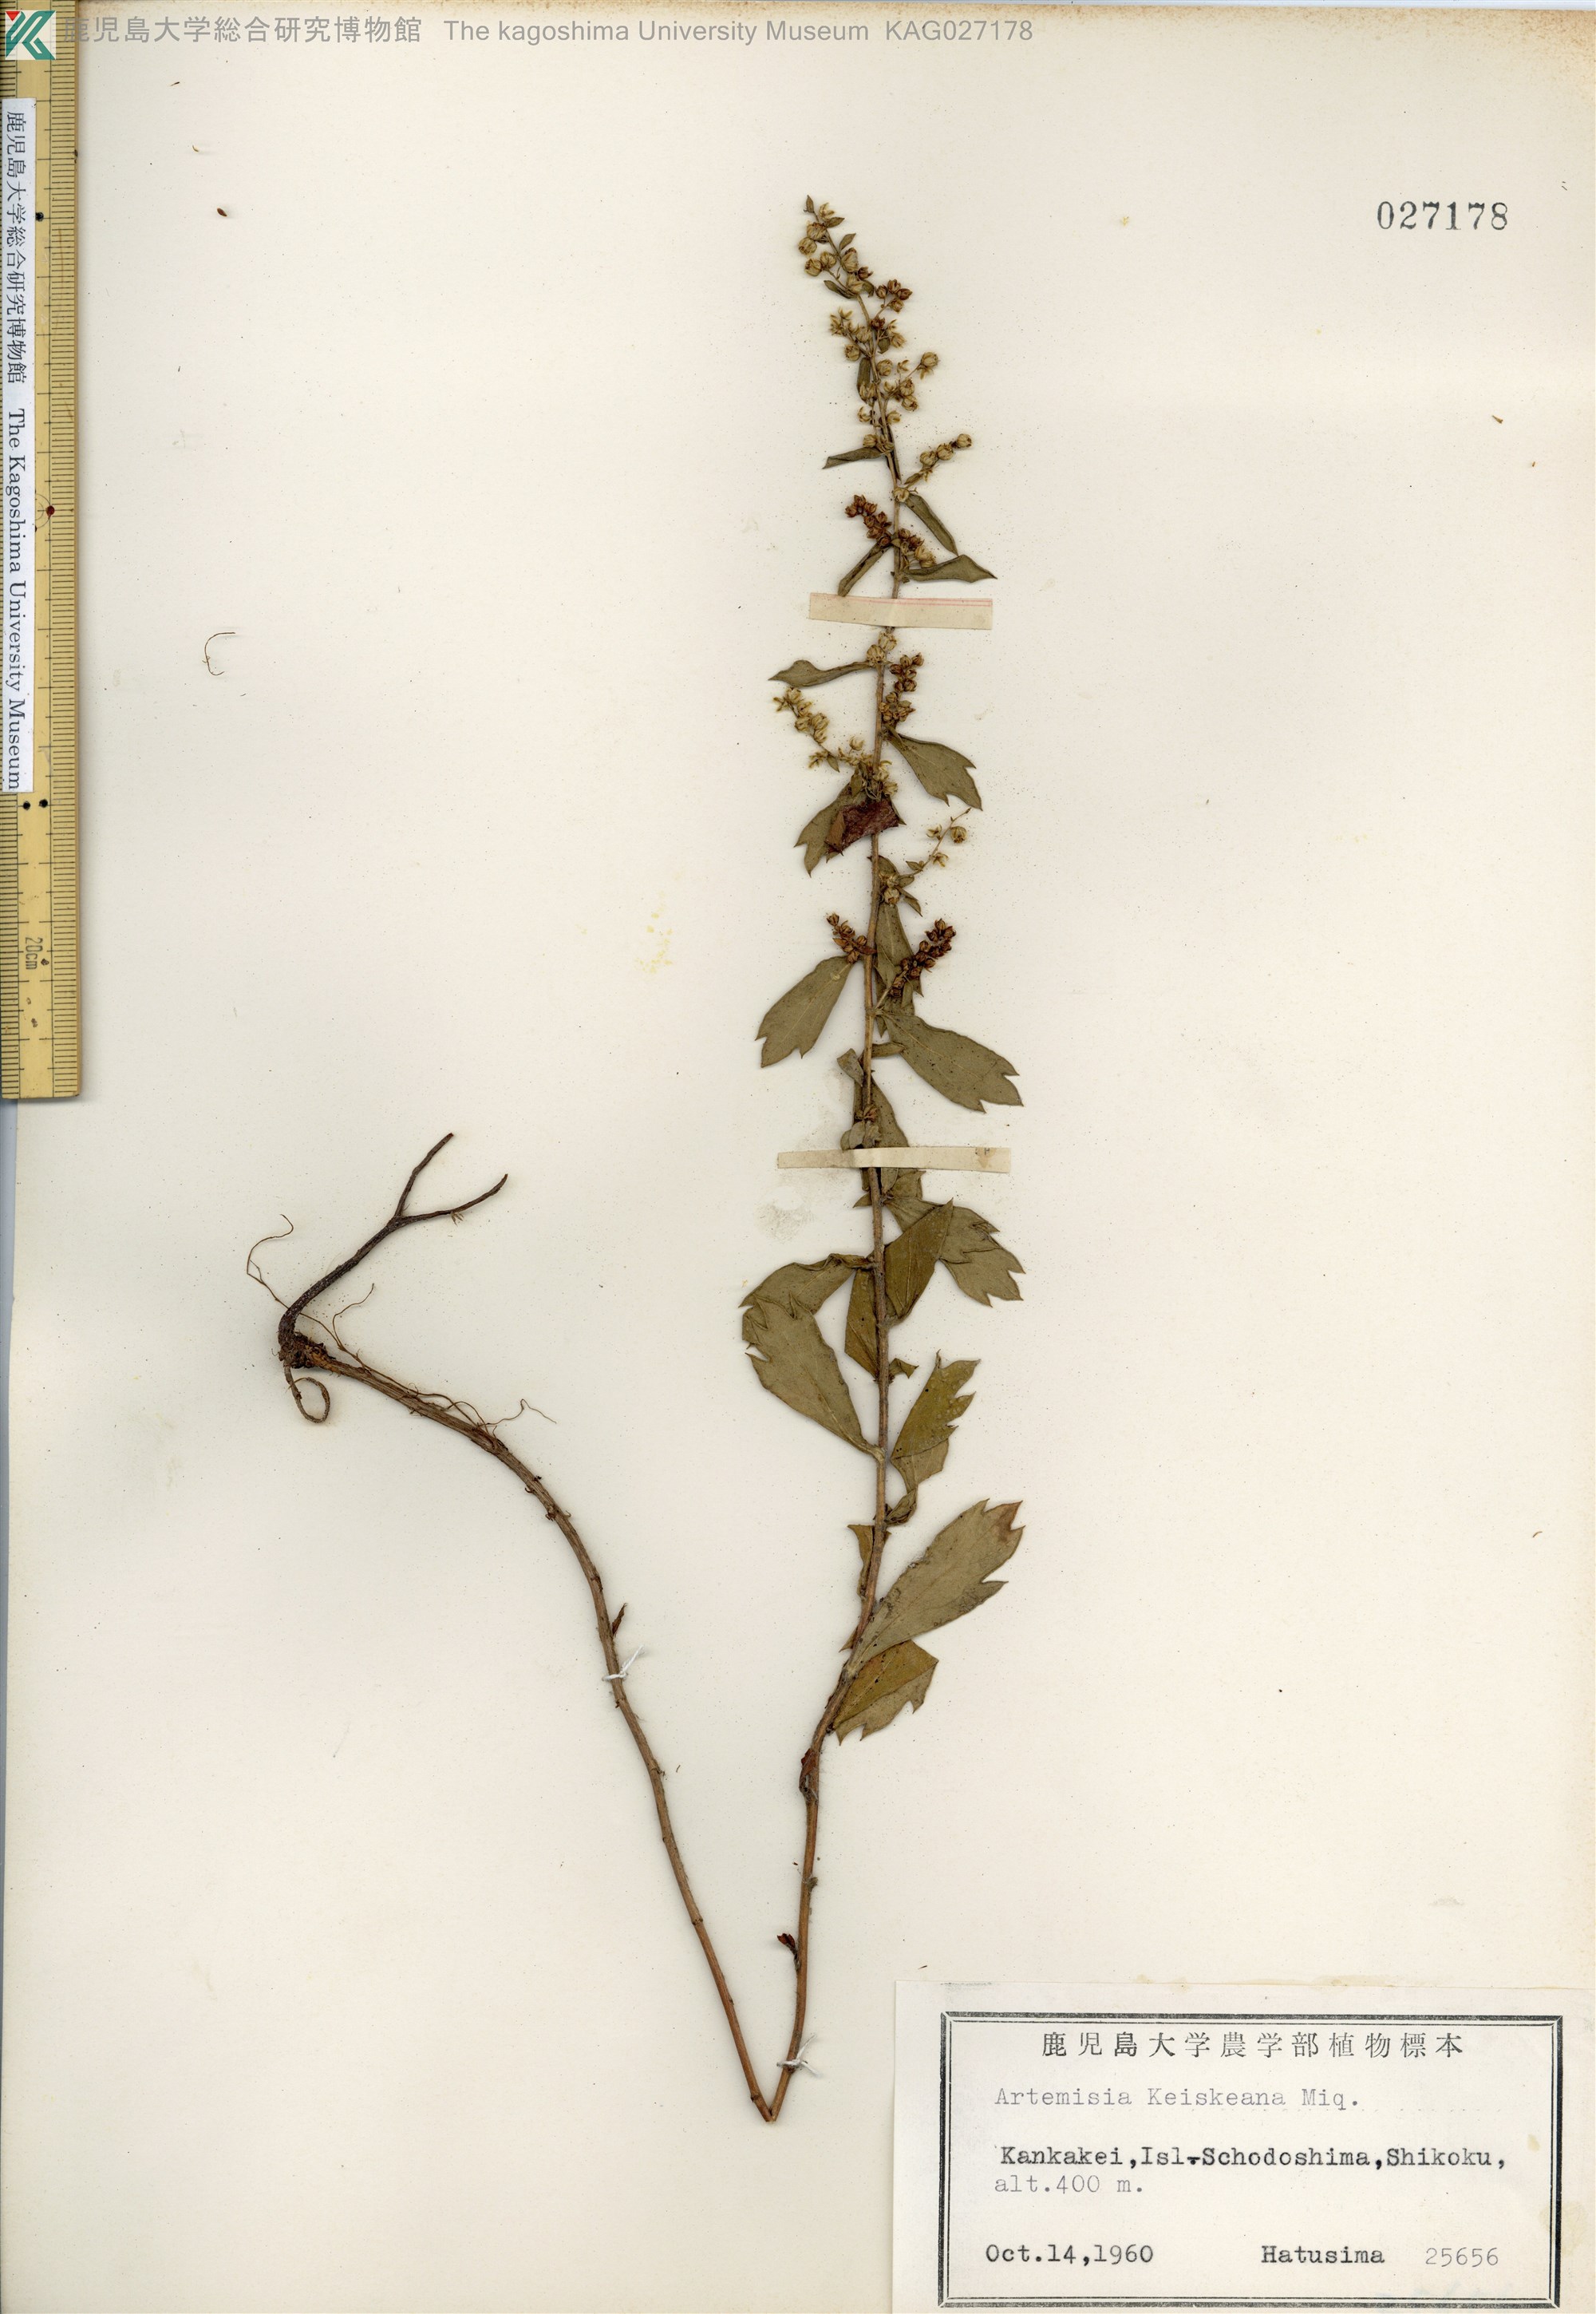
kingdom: Plantae
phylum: Tracheophyta
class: Magnoliopsida
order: Asterales
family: Asteraceae
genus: Artemisia
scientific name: Artemisia keiskeana
